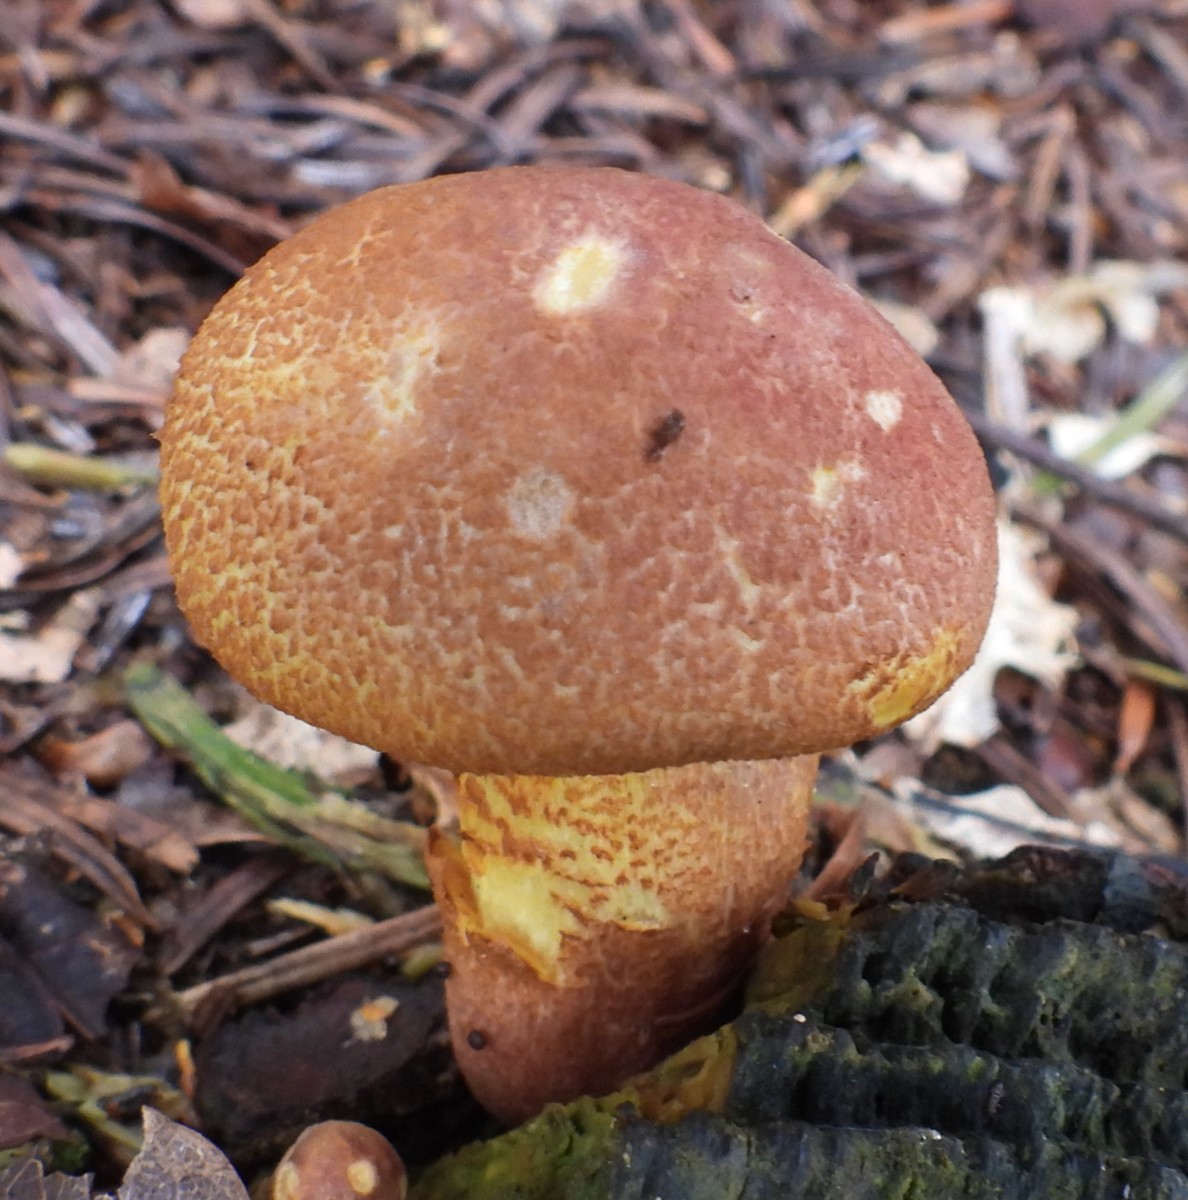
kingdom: Fungi
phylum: Basidiomycota
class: Agaricomycetes
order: Agaricales
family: Tricholomataceae
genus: Tricholomopsis
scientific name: Tricholomopsis rutilans
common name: purpur-væbnerhat
